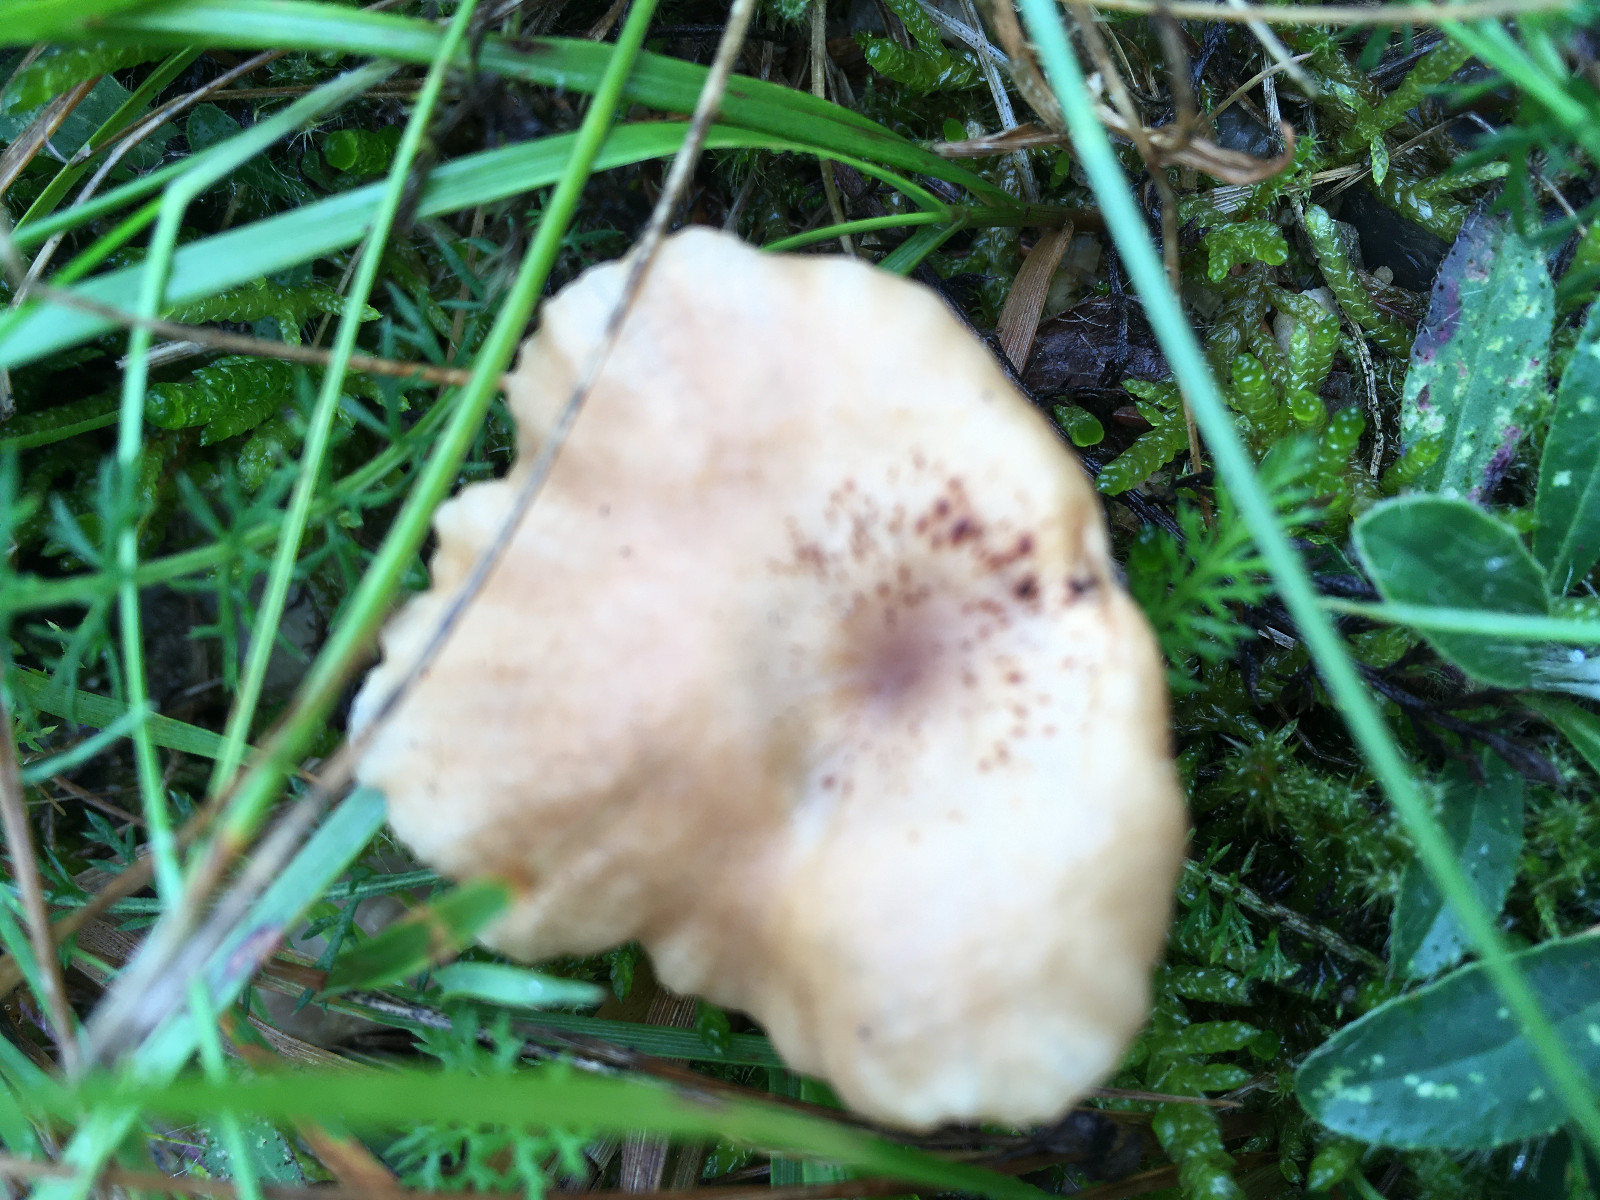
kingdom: Fungi
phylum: Basidiomycota
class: Agaricomycetes
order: Agaricales
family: Tricholomataceae
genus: Infundibulicybe
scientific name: Infundibulicybe
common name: tragthat
